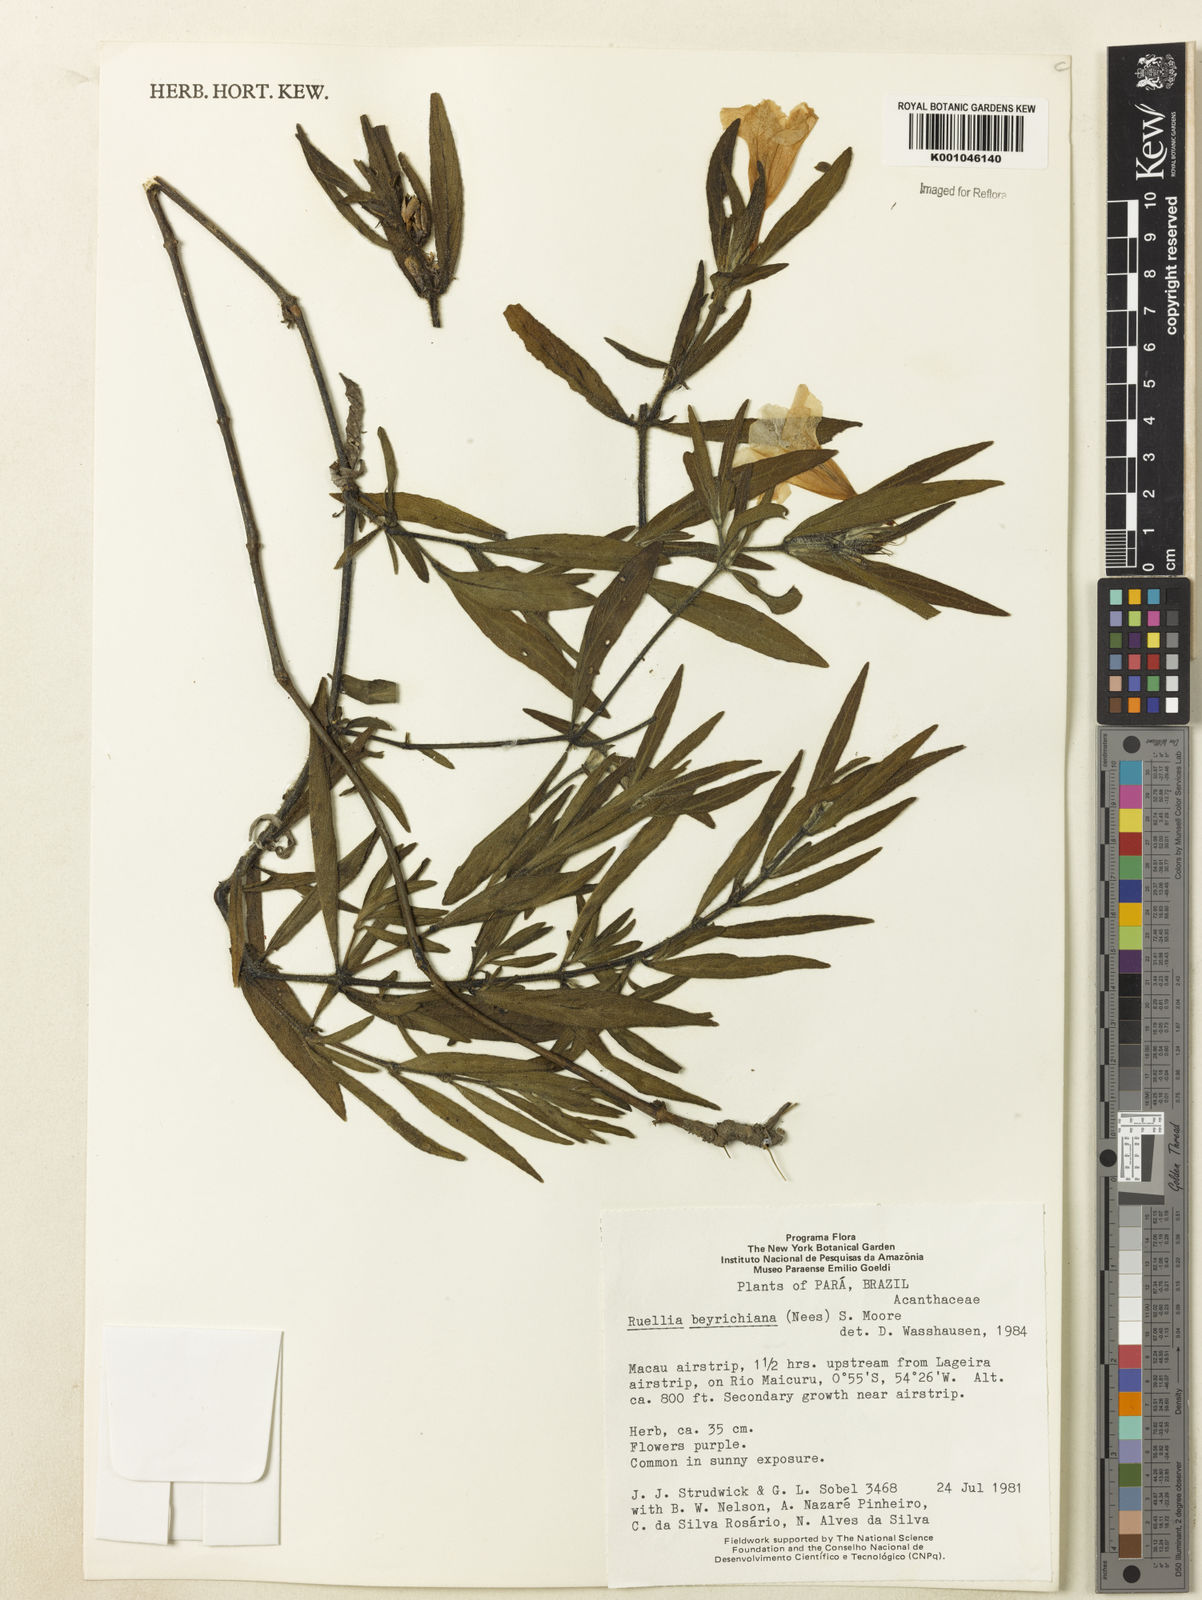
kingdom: Plantae
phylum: Tracheophyta
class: Magnoliopsida
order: Lamiales
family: Acanthaceae
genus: Ruellia
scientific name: Ruellia beyrichiana
